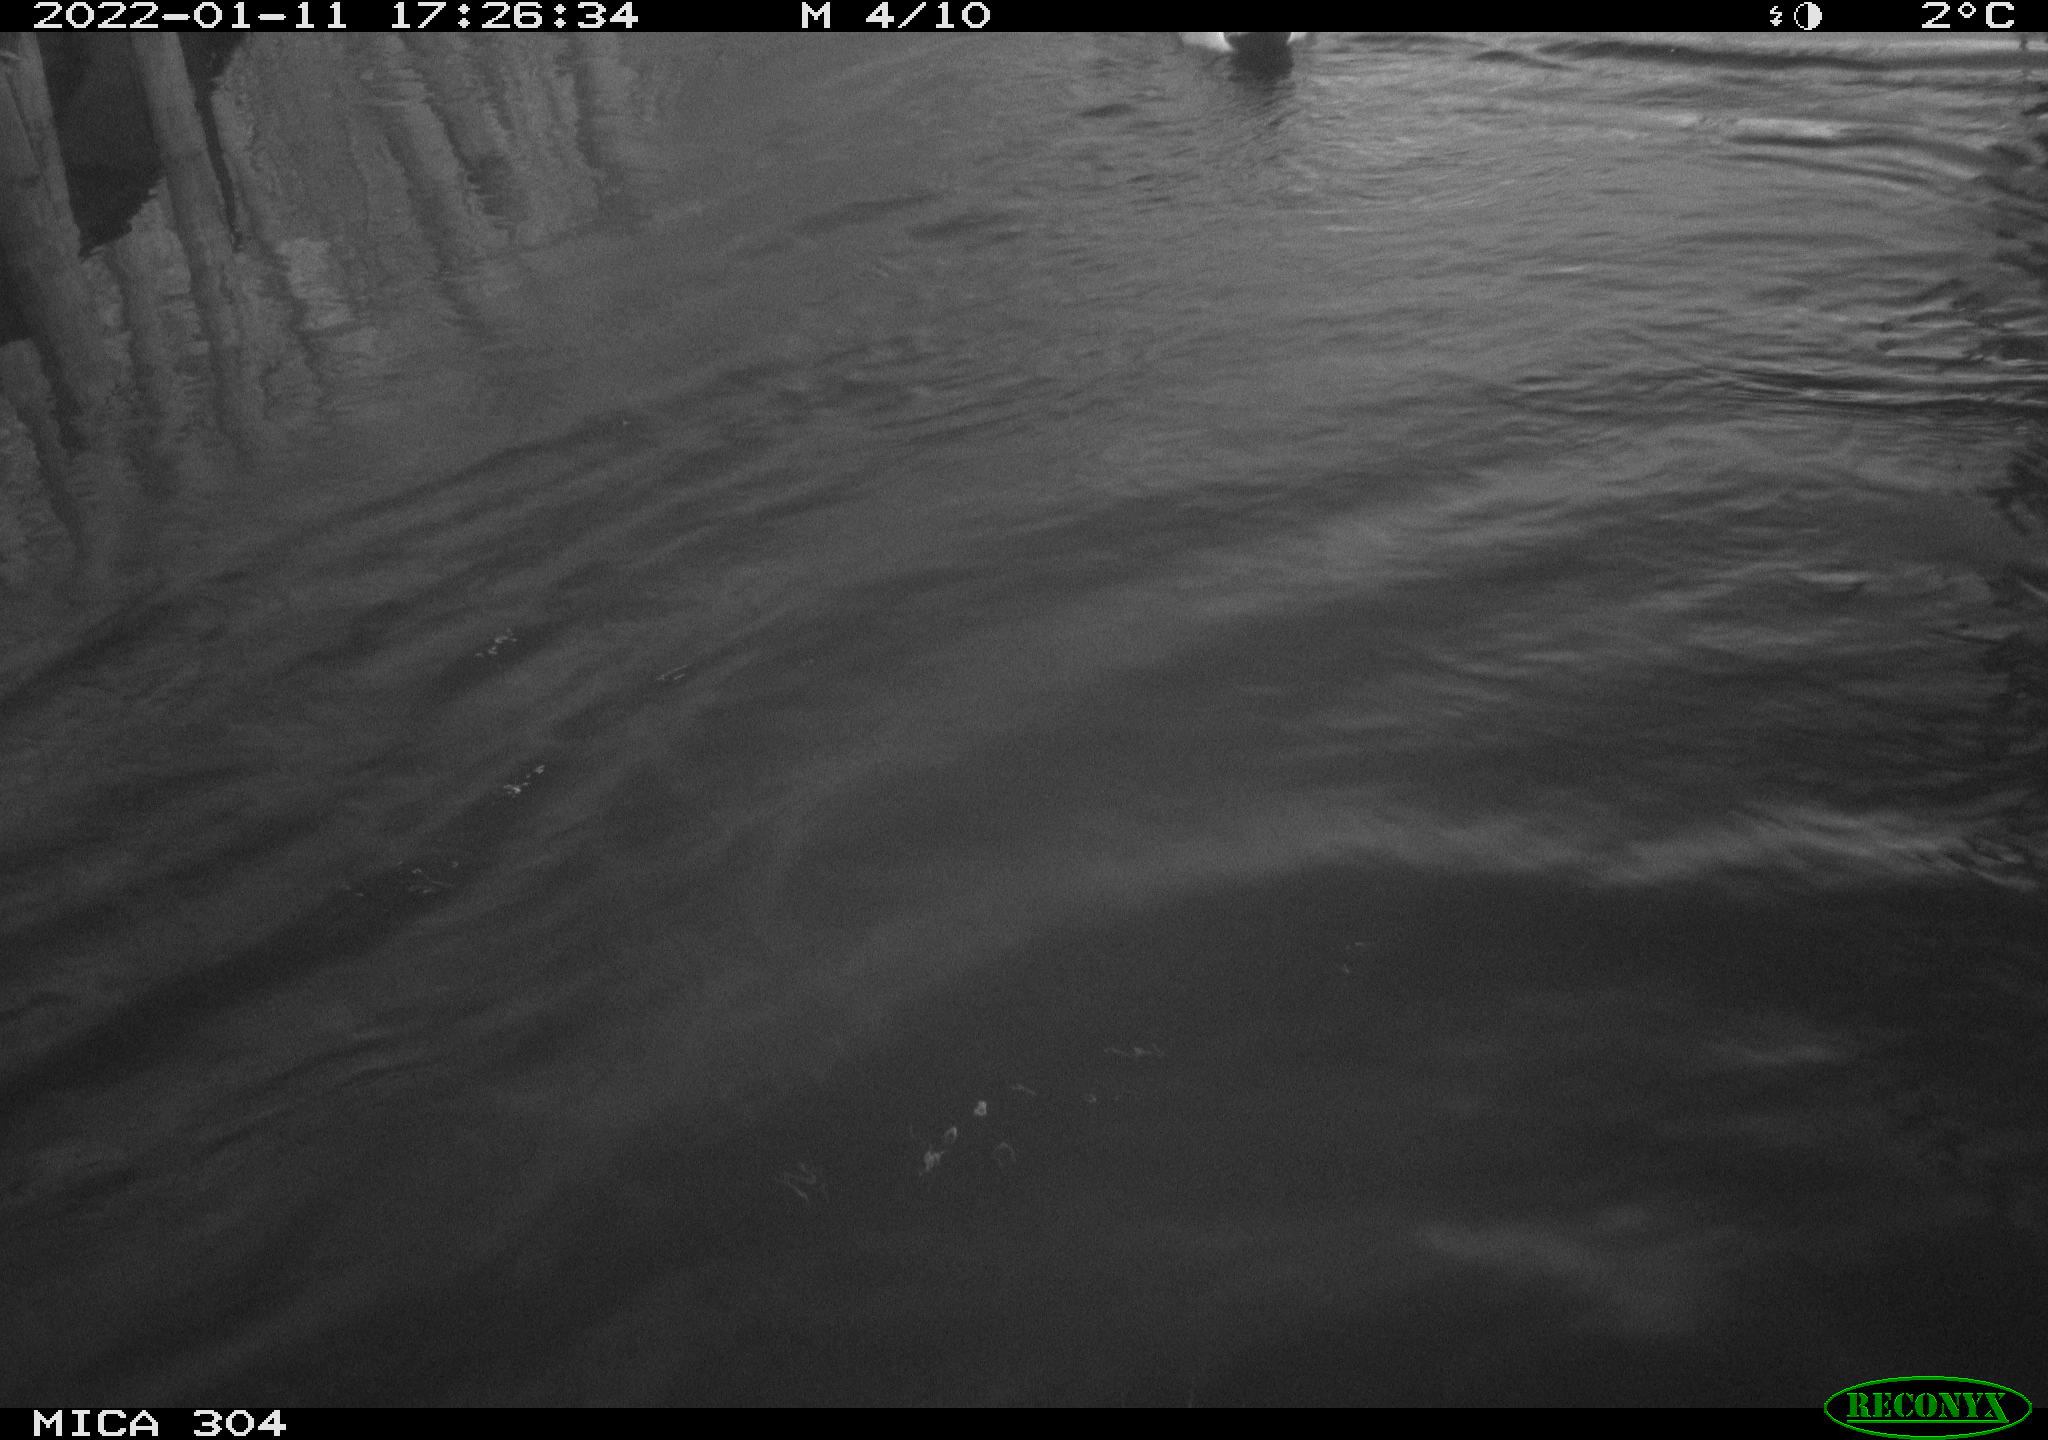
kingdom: Animalia
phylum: Chordata
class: Aves
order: Anseriformes
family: Anatidae
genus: Anas
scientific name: Anas
